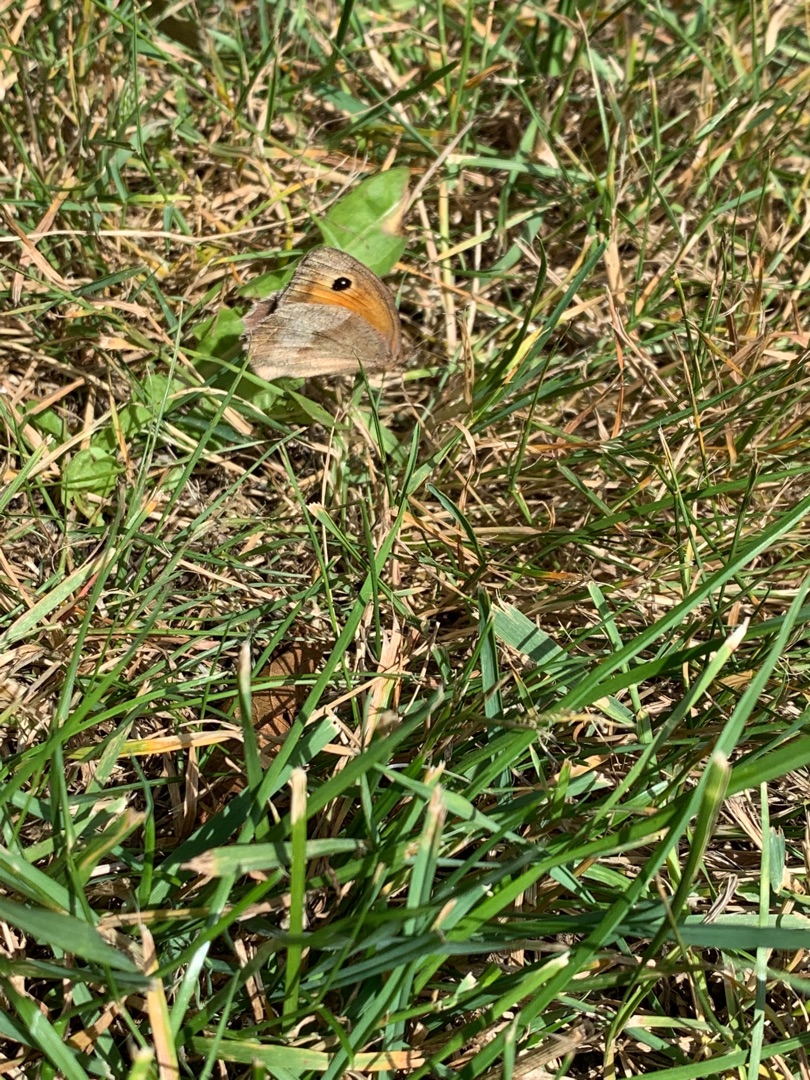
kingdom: Animalia
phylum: Arthropoda
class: Insecta
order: Lepidoptera
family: Nymphalidae
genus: Maniola
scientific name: Maniola jurtina
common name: Græsrandøje
